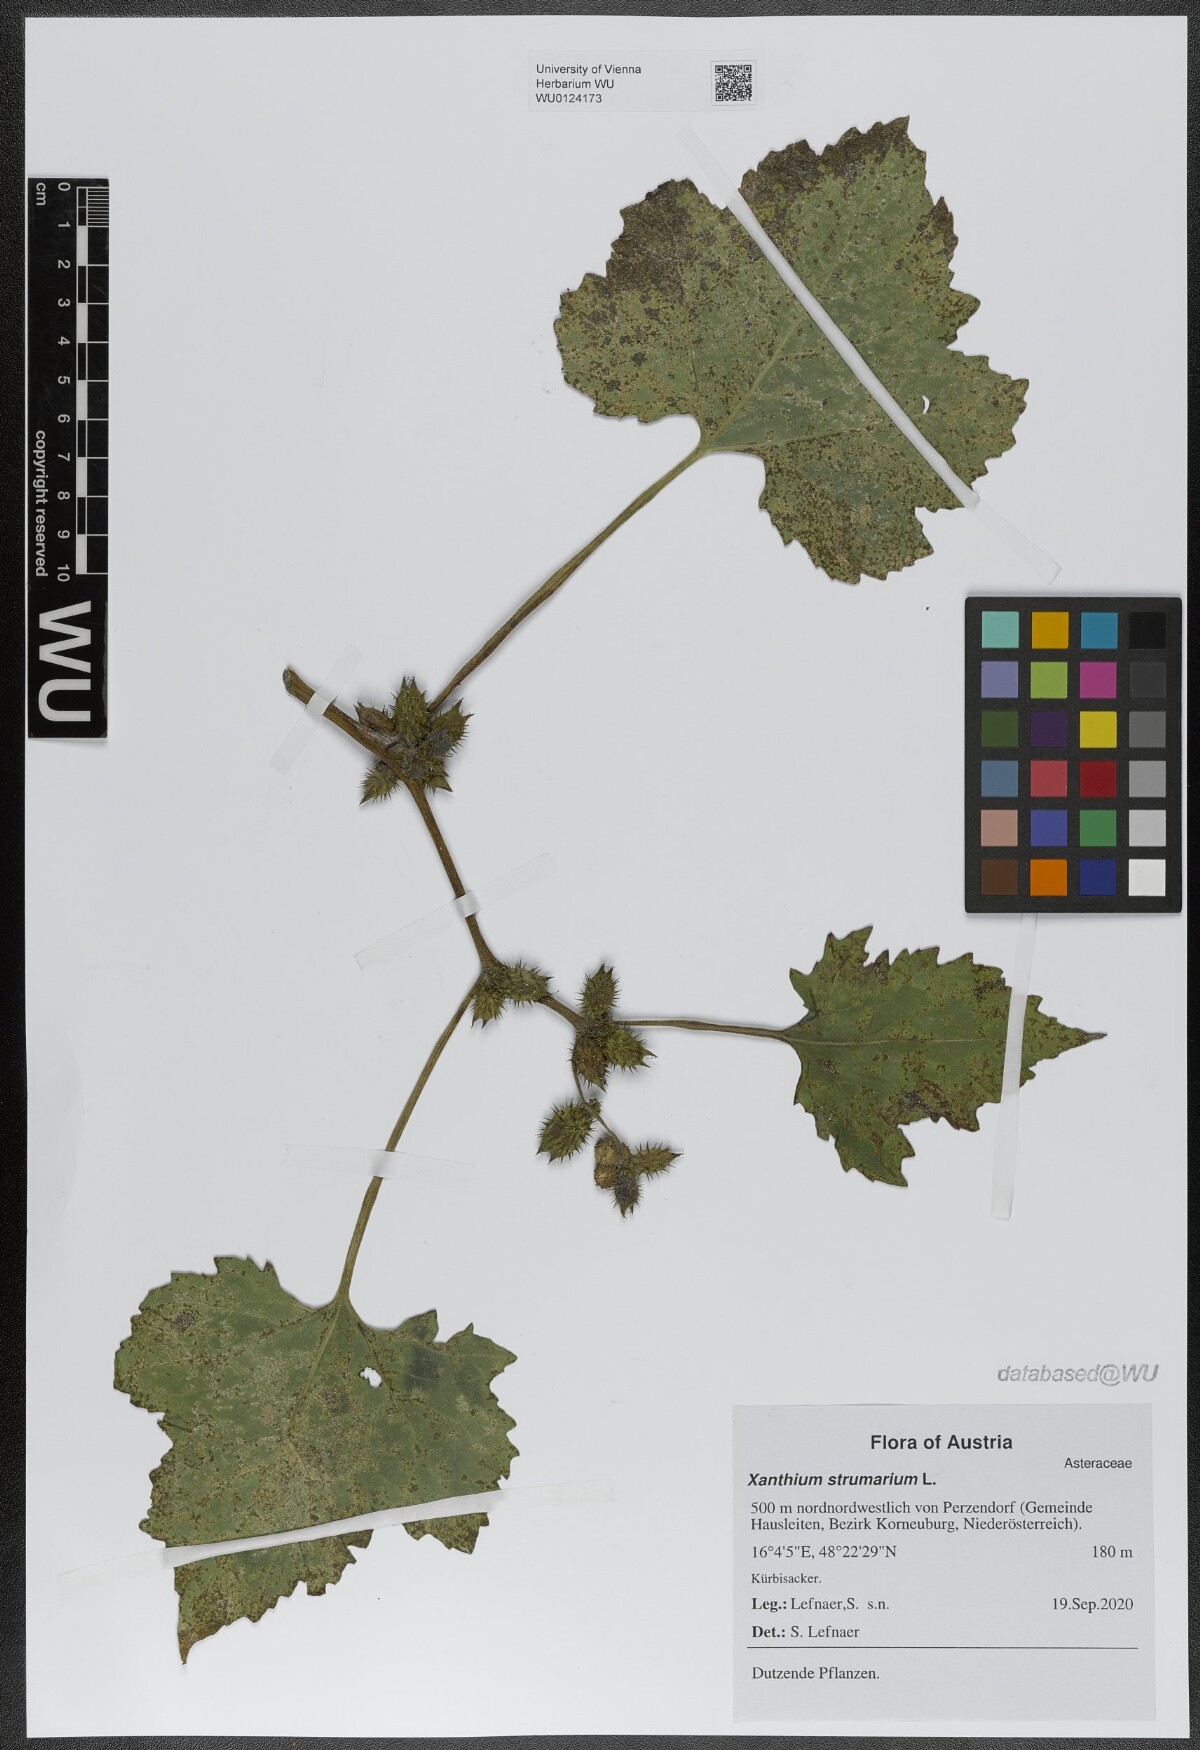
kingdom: Plantae
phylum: Tracheophyta
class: Magnoliopsida
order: Asterales
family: Asteraceae
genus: Xanthium
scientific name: Xanthium strumarium
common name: Rough cocklebur
